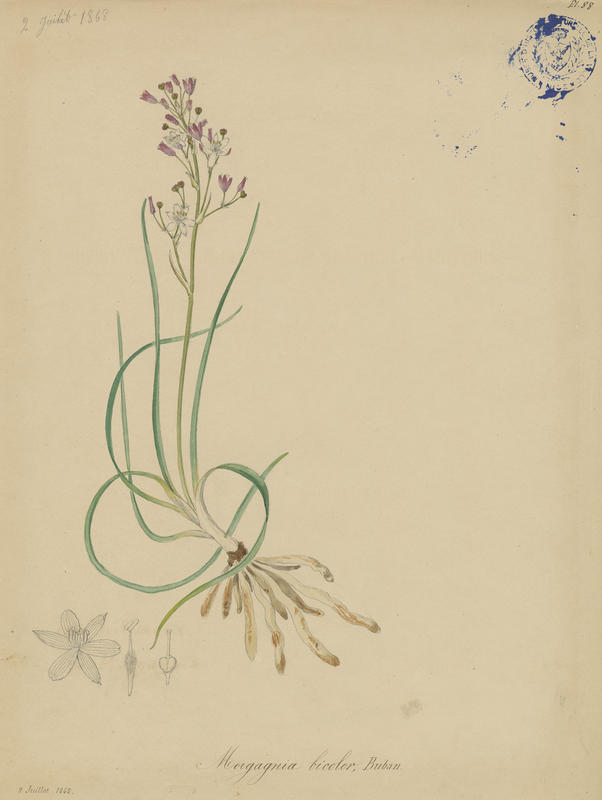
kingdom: Plantae
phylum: Tracheophyta
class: Liliopsida
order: Asparagales
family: Asphodelaceae
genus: Simethis
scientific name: Simethis mattiazzii
